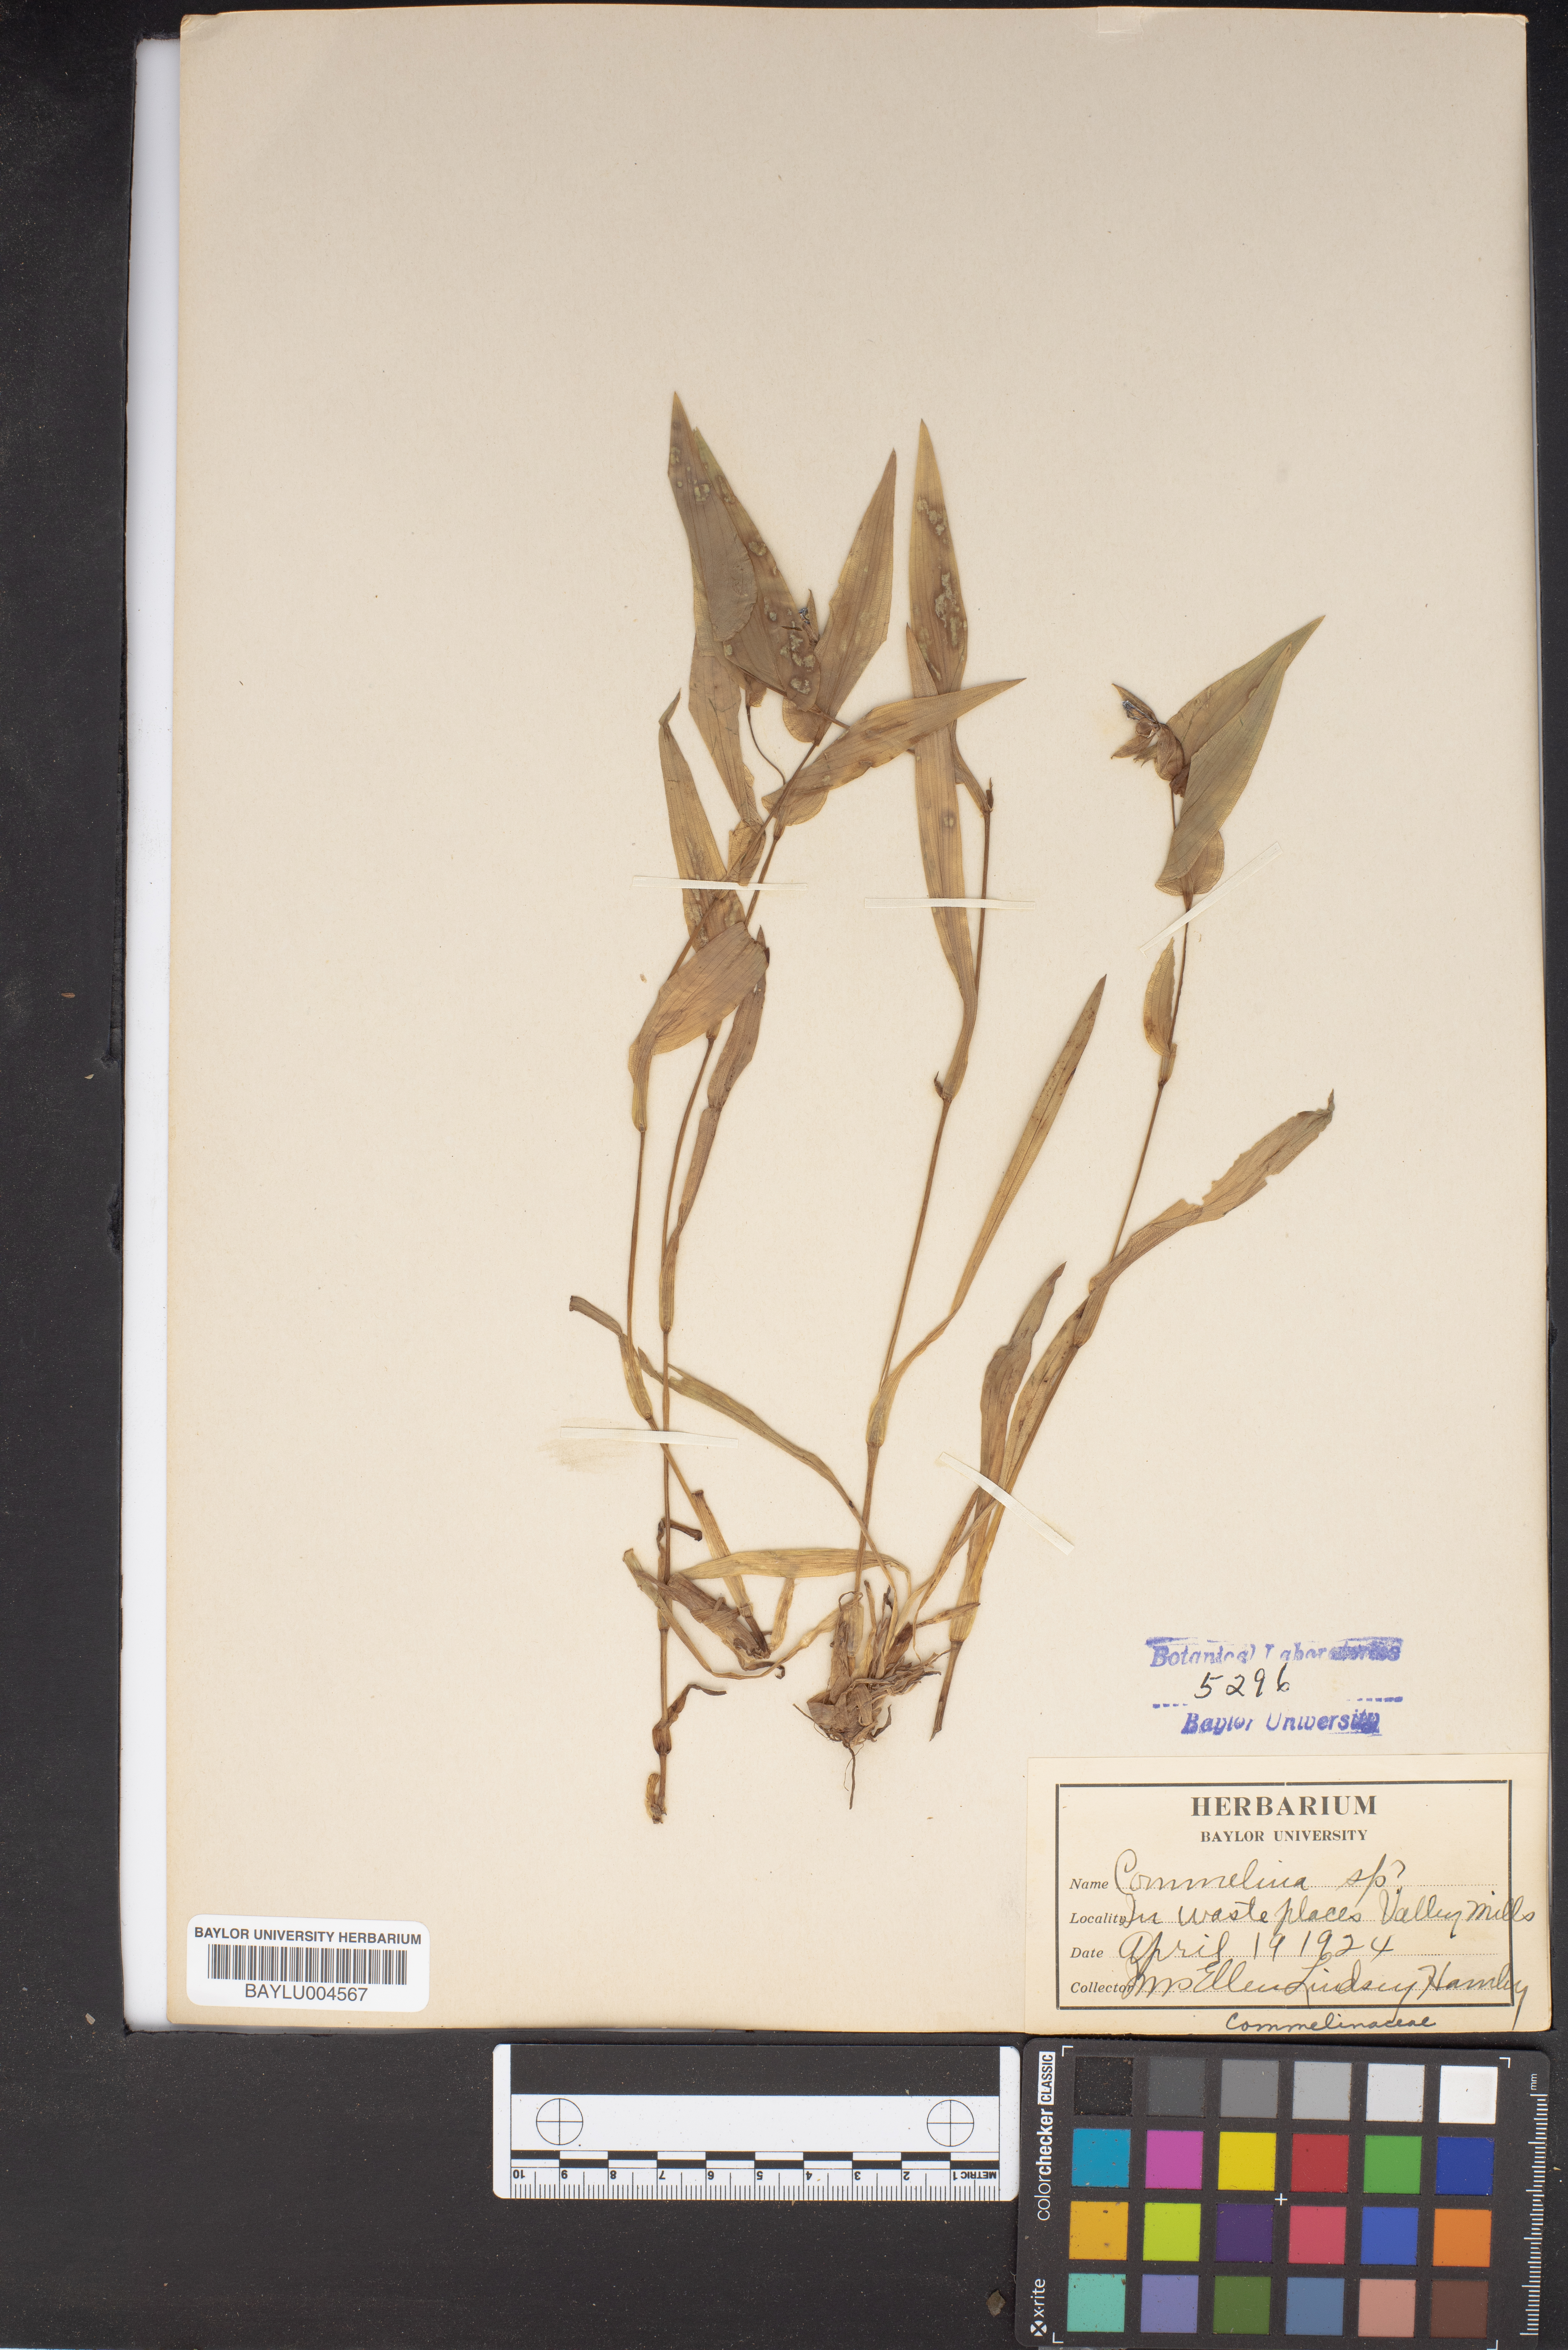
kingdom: Plantae
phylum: Tracheophyta
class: Liliopsida
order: Commelinales
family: Commelinaceae
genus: Commelina
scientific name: Commelina
